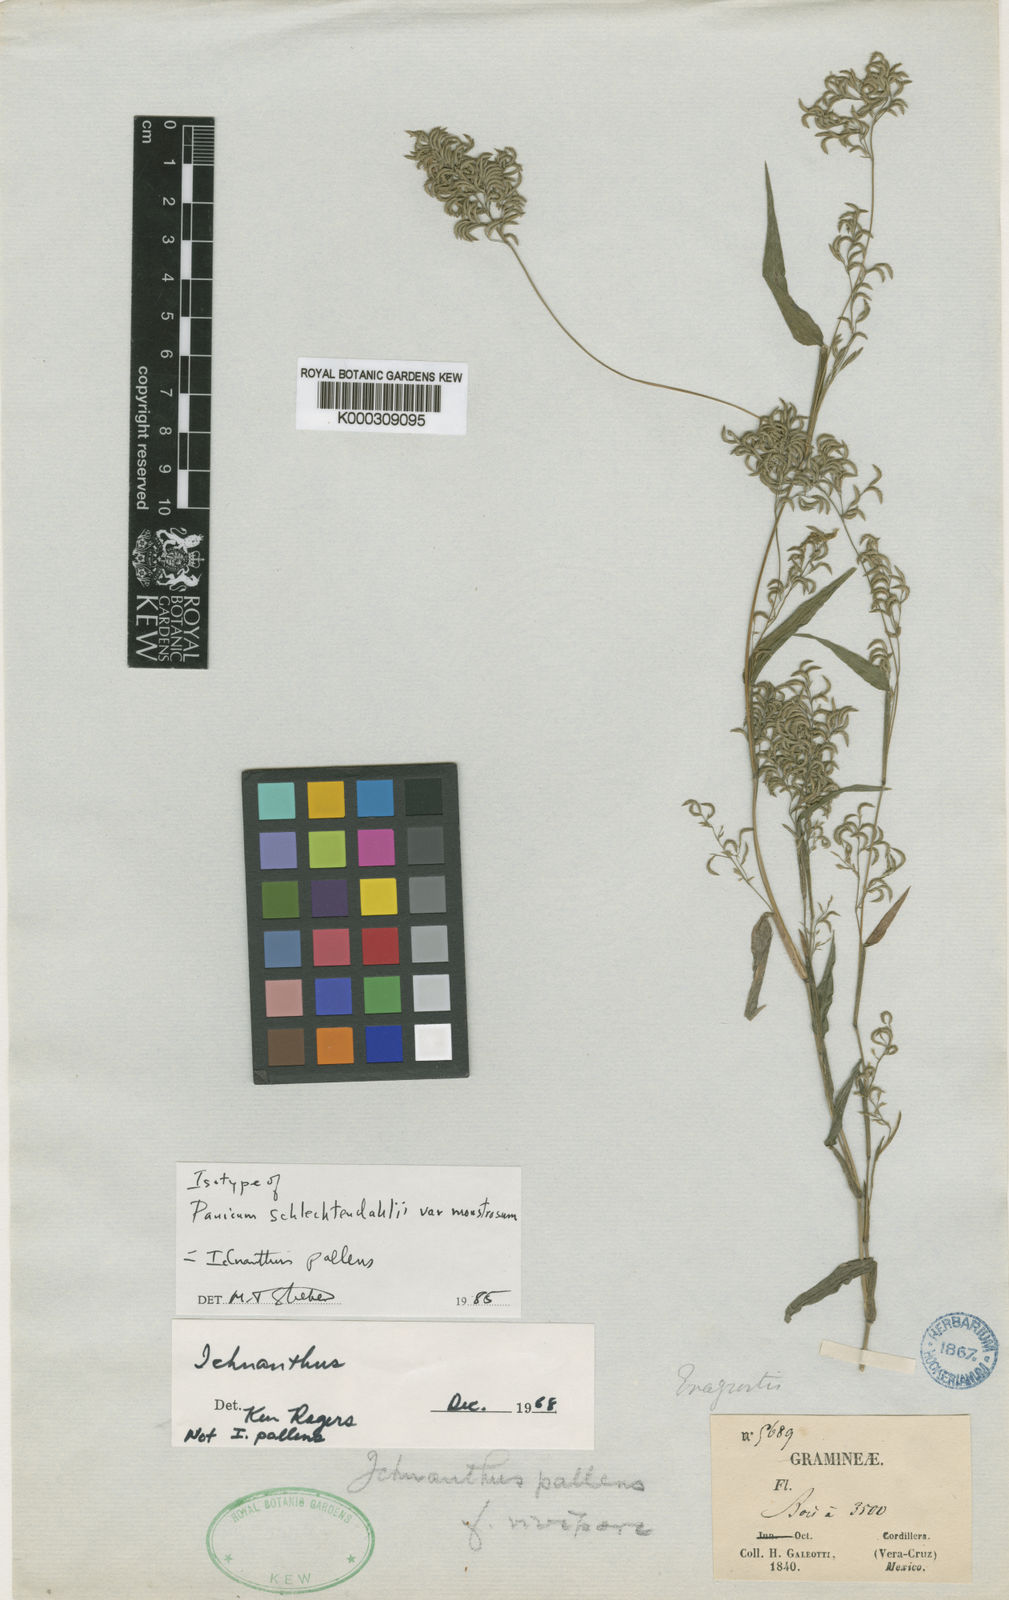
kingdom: Plantae
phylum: Tracheophyta
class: Liliopsida
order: Poales
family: Poaceae
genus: Ichnanthus
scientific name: Ichnanthus pallens
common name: Water grass
